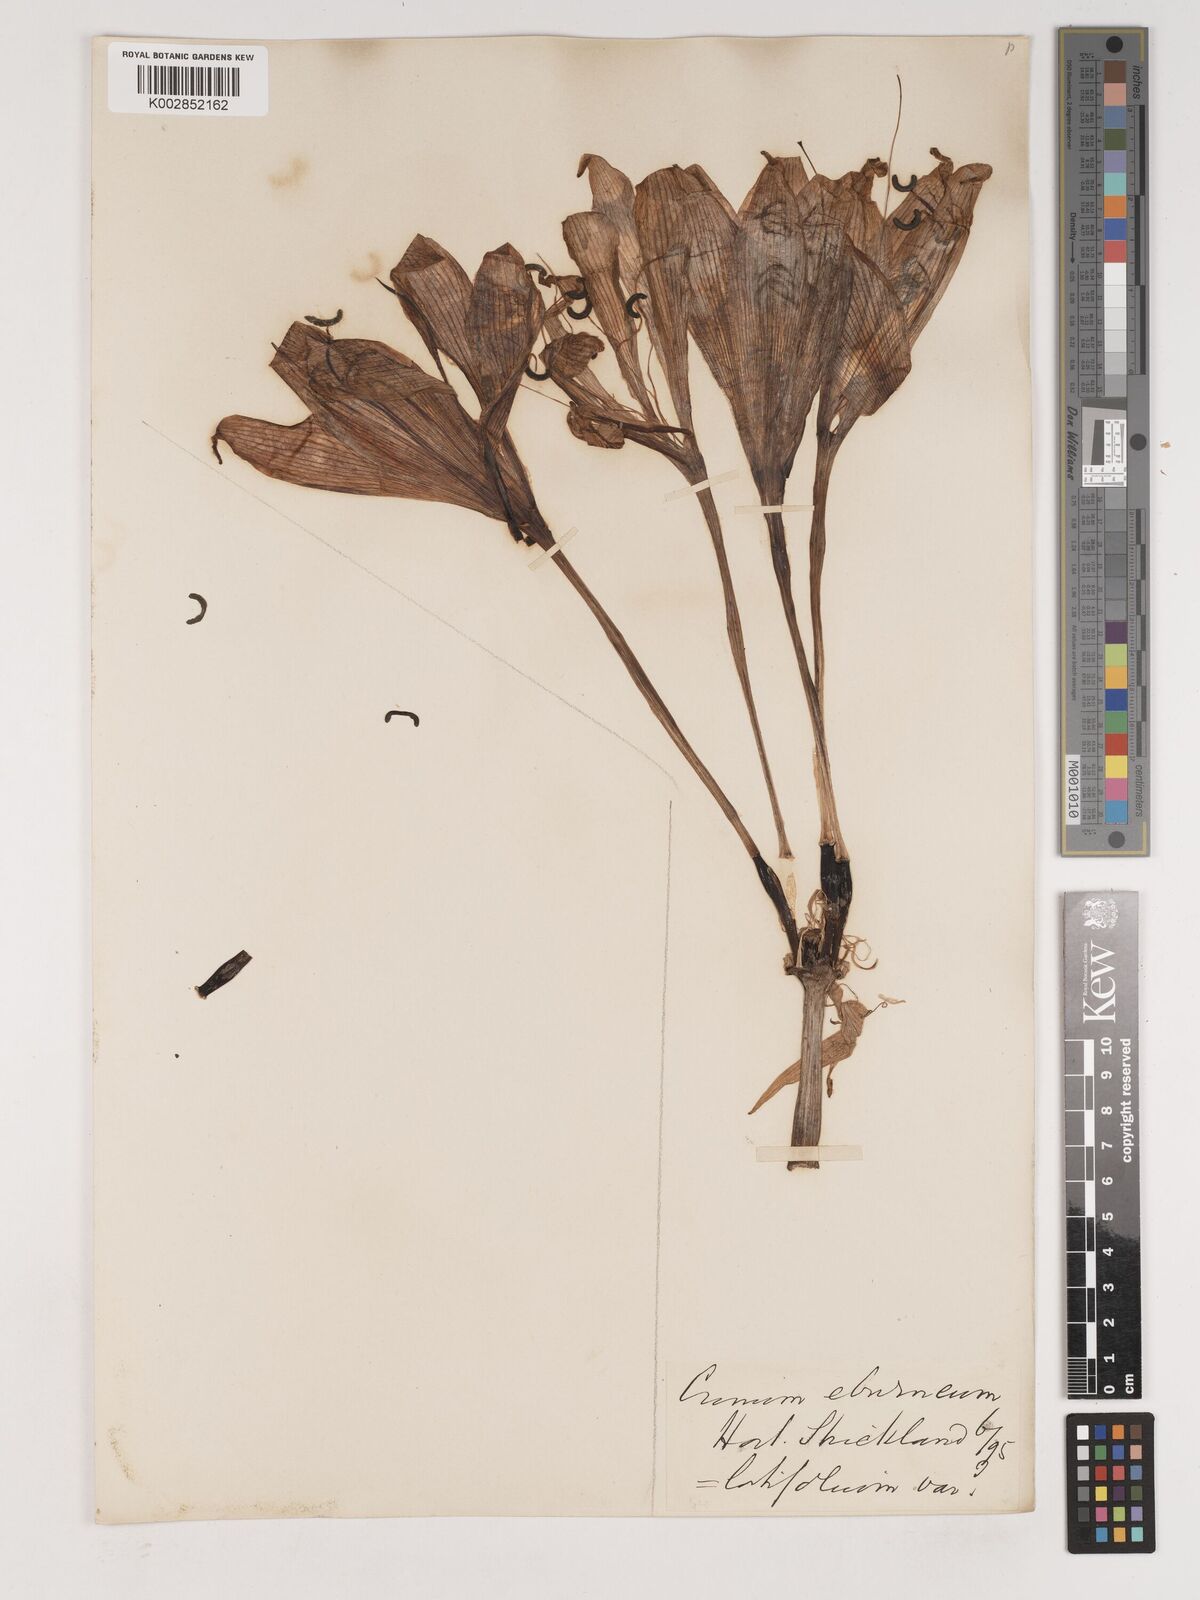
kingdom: Plantae
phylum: Tracheophyta
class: Liliopsida
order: Asparagales
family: Amaryllidaceae
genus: Crinum
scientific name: Crinum jagus
